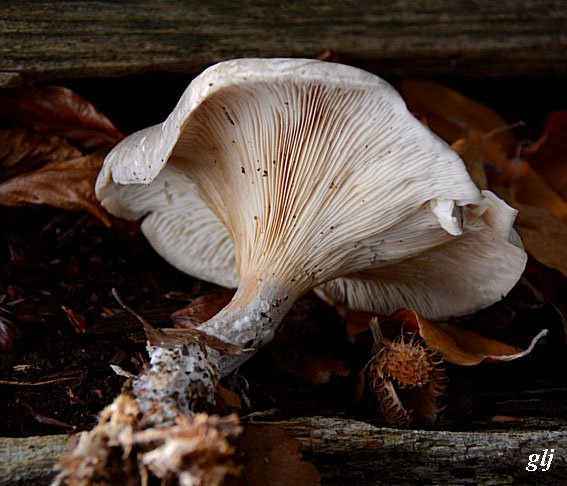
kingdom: Fungi
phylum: Basidiomycota
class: Agaricomycetes
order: Agaricales
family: Tricholomataceae
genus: Clitocybe
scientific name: Clitocybe nebularis
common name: tåge-tragthat
